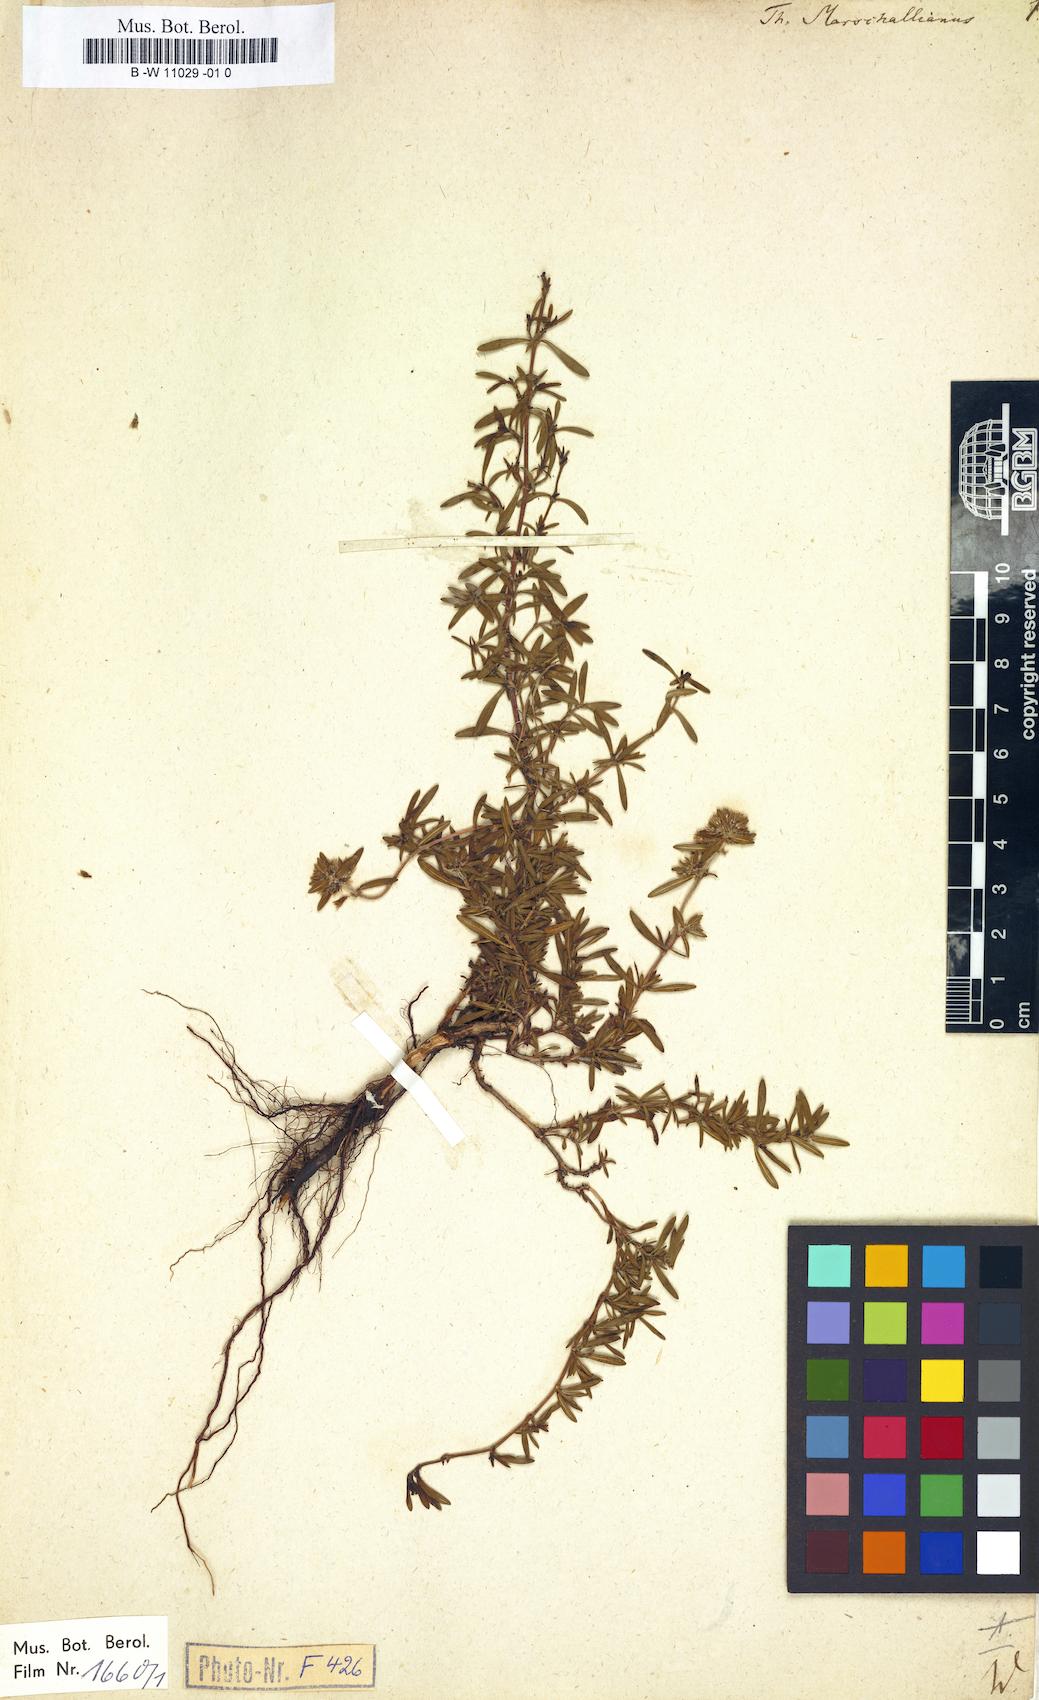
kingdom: Plantae
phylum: Tracheophyta
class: Magnoliopsida
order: Lamiales
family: Lamiaceae
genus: Thymus
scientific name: Thymus marschallianus
